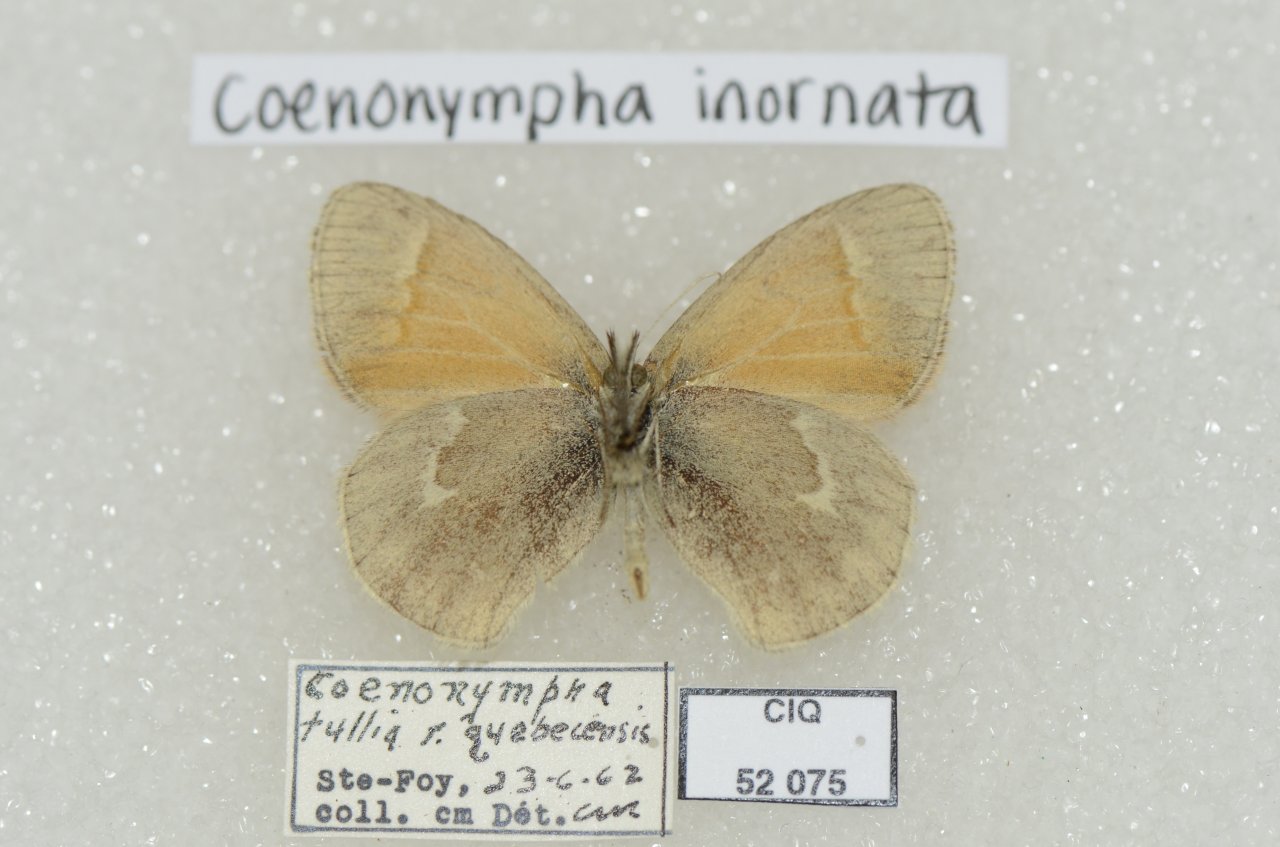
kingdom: Animalia
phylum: Arthropoda
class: Insecta
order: Lepidoptera
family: Nymphalidae
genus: Coenonympha
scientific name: Coenonympha tullia
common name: Large Heath
